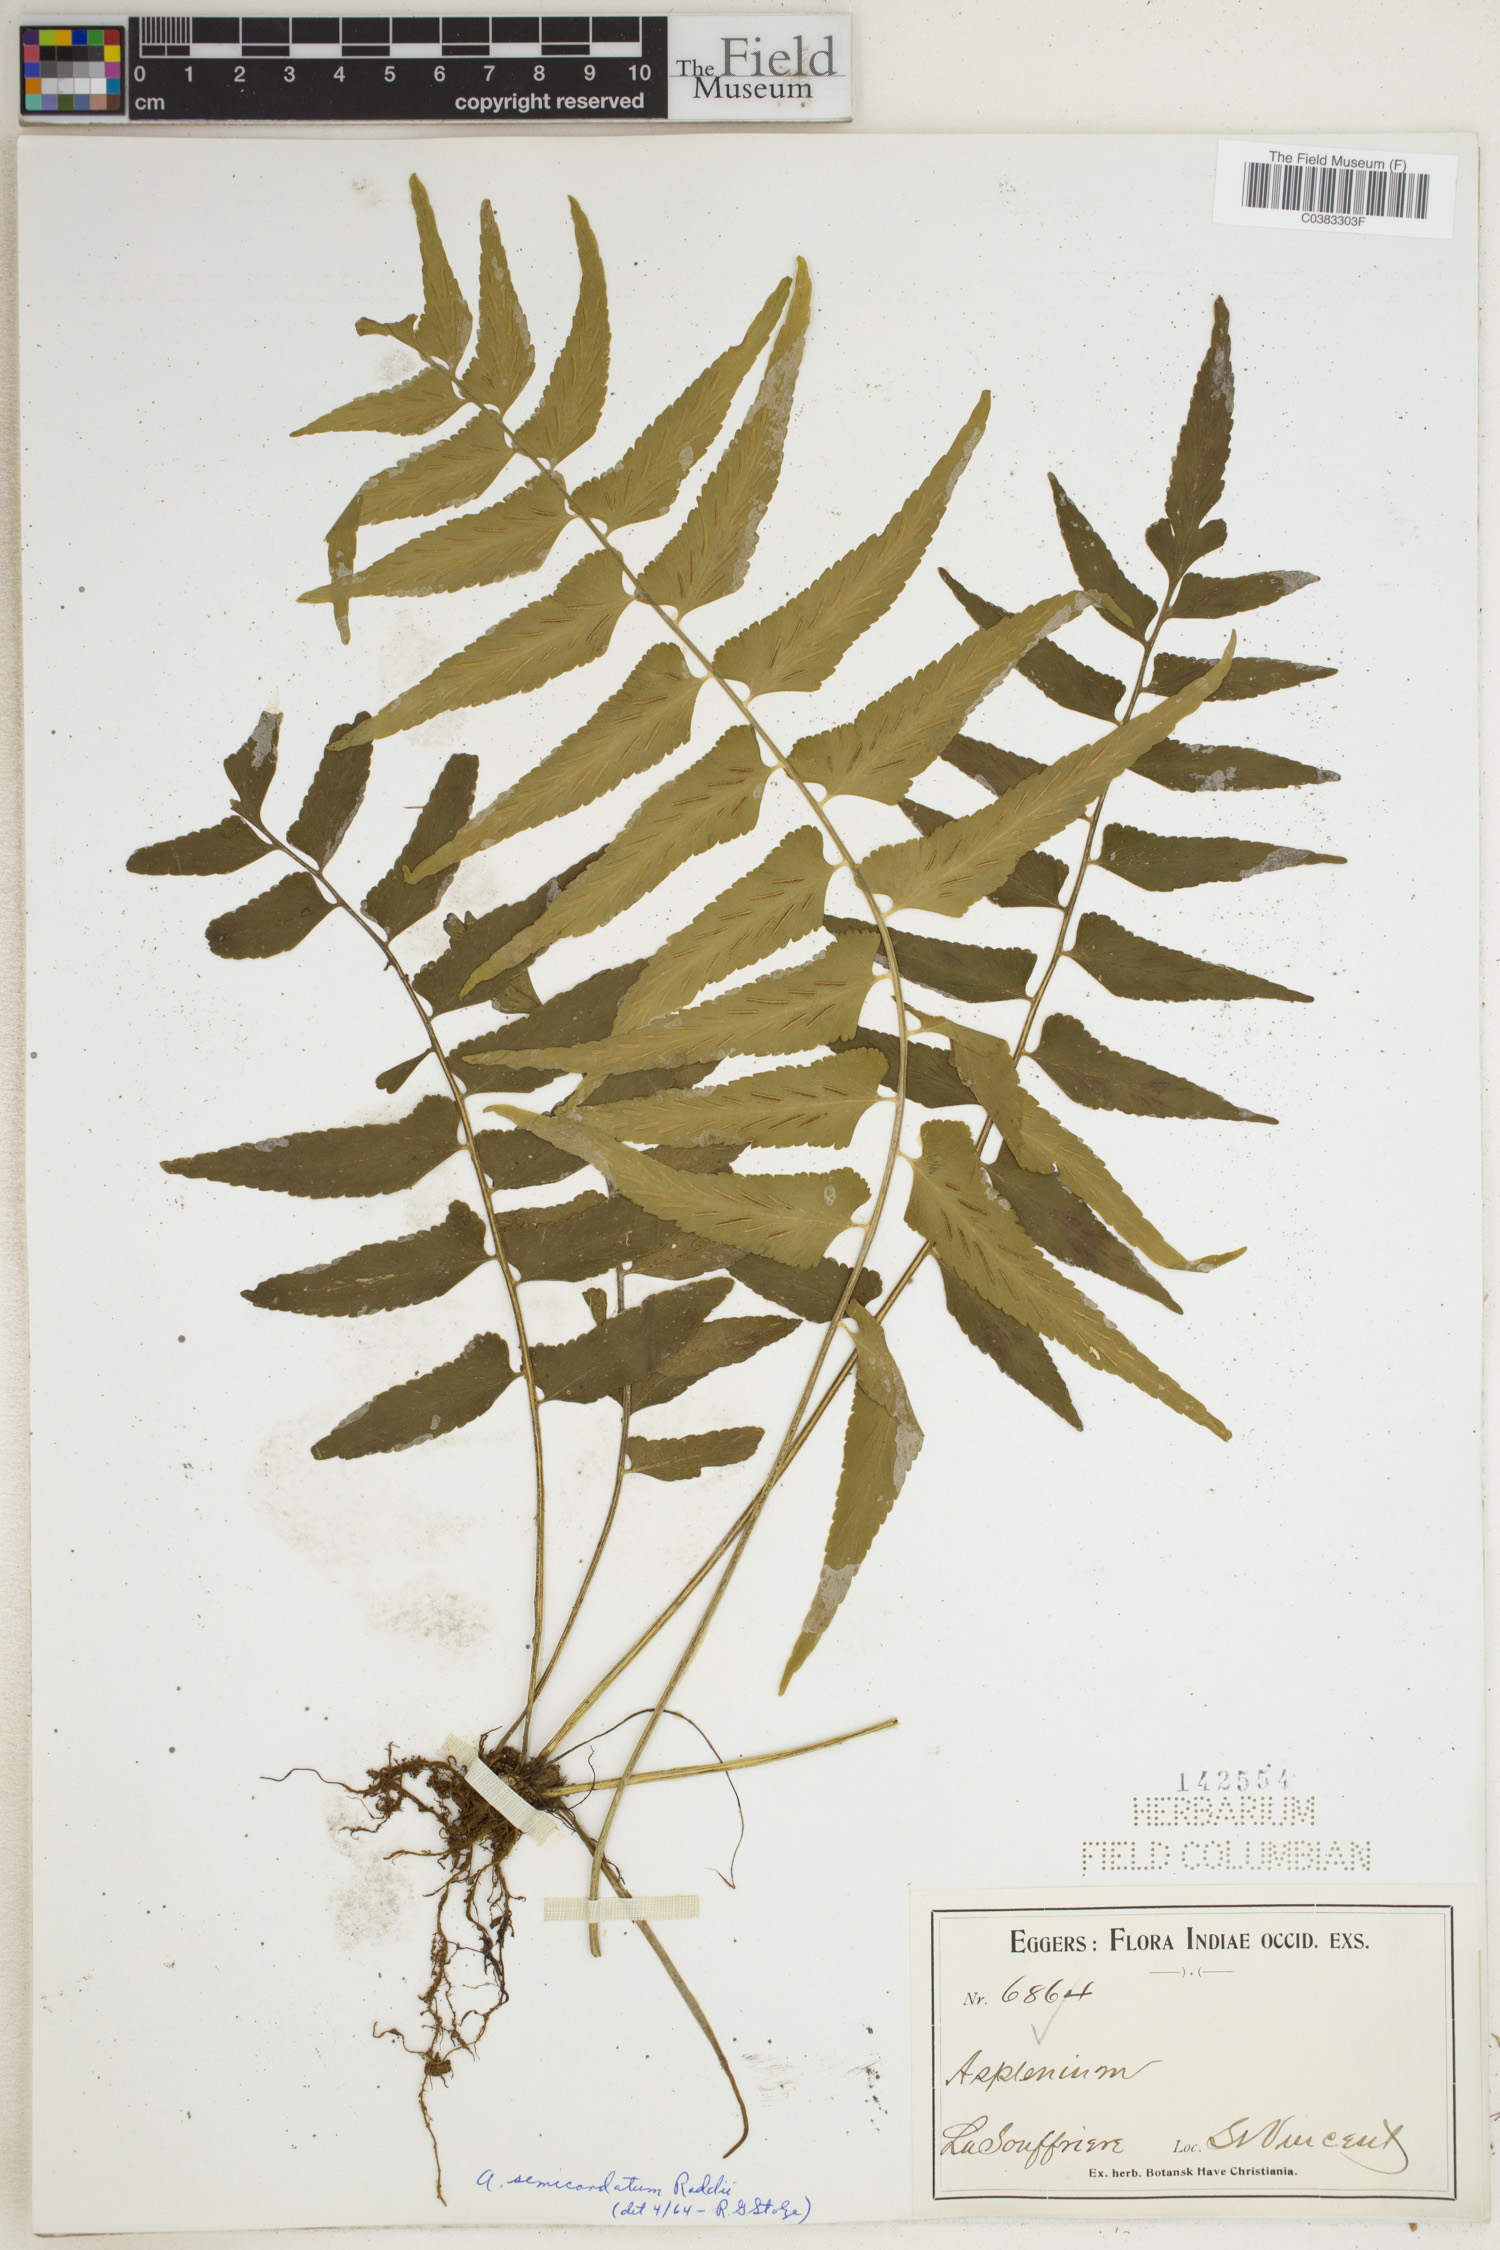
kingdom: Plantae
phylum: Tracheophyta
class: Polypodiopsida
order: Polypodiales
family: Aspleniaceae
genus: Asplenium
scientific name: Asplenium auriculatum
